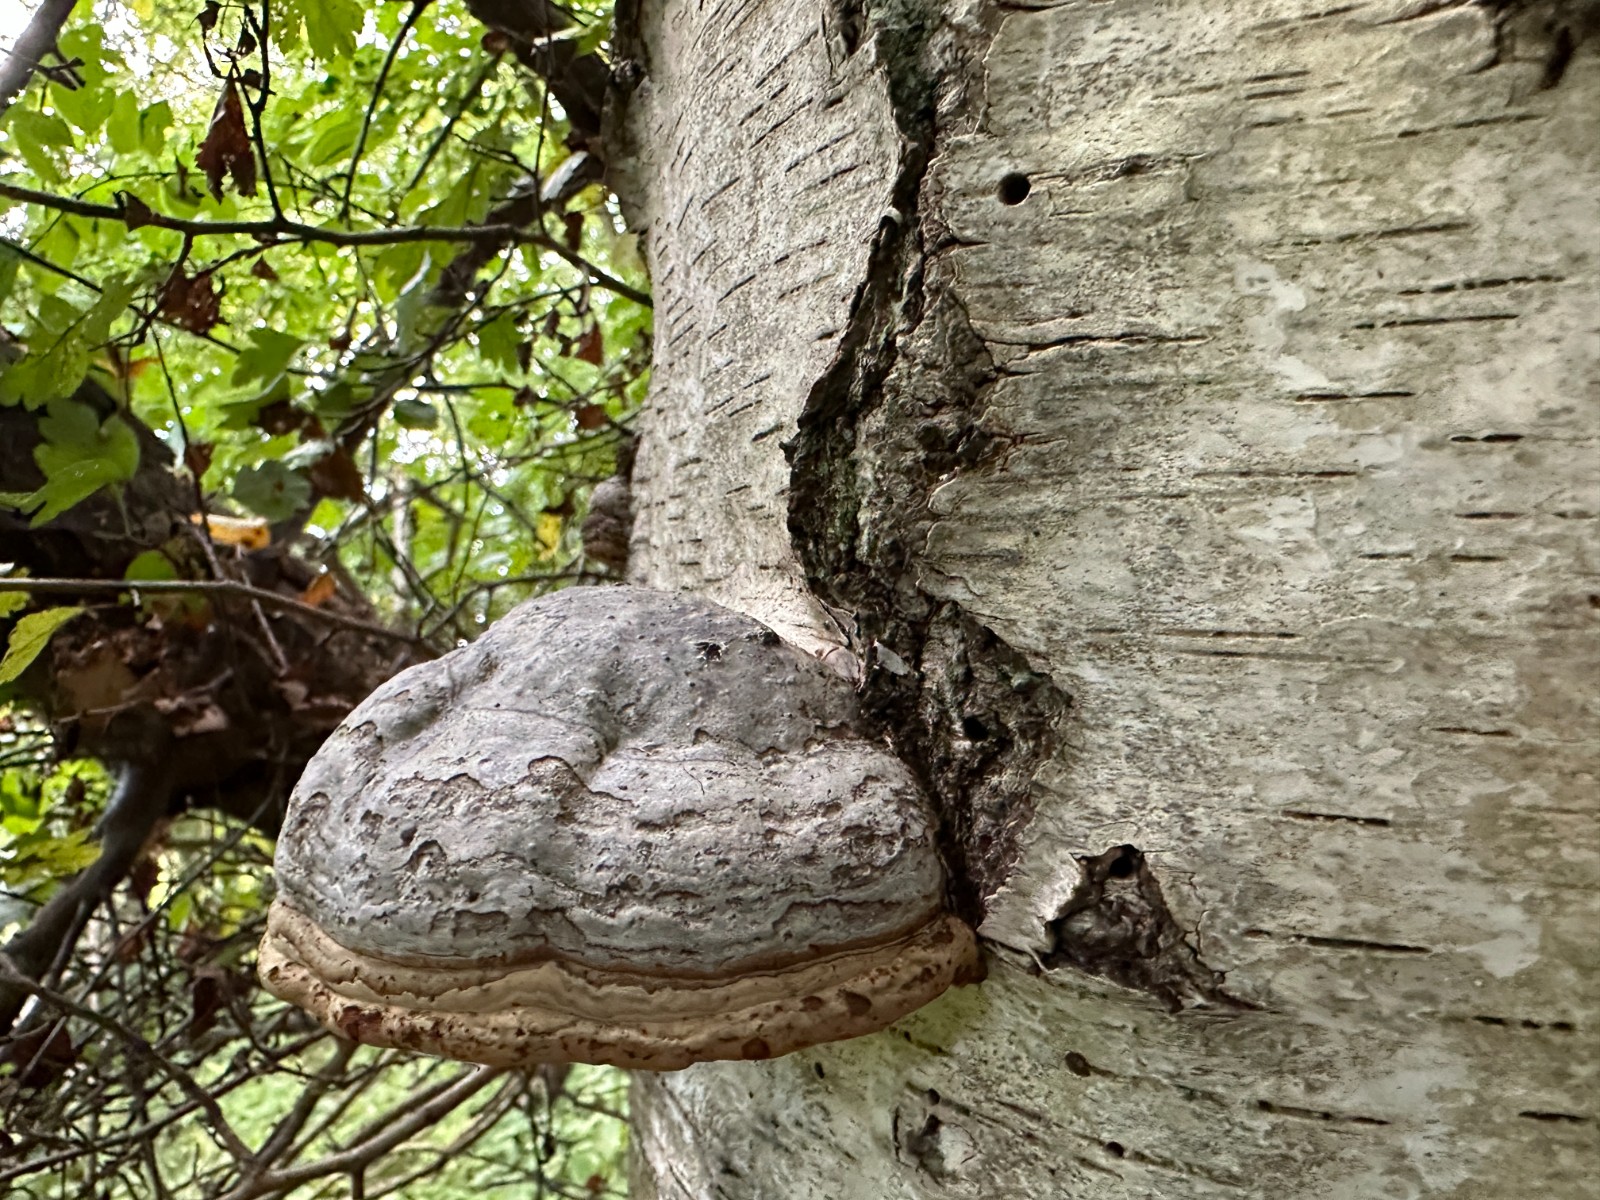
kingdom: Fungi
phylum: Basidiomycota
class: Agaricomycetes
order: Polyporales
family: Polyporaceae
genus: Fomes
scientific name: Fomes fomentarius
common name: tøndersvamp
